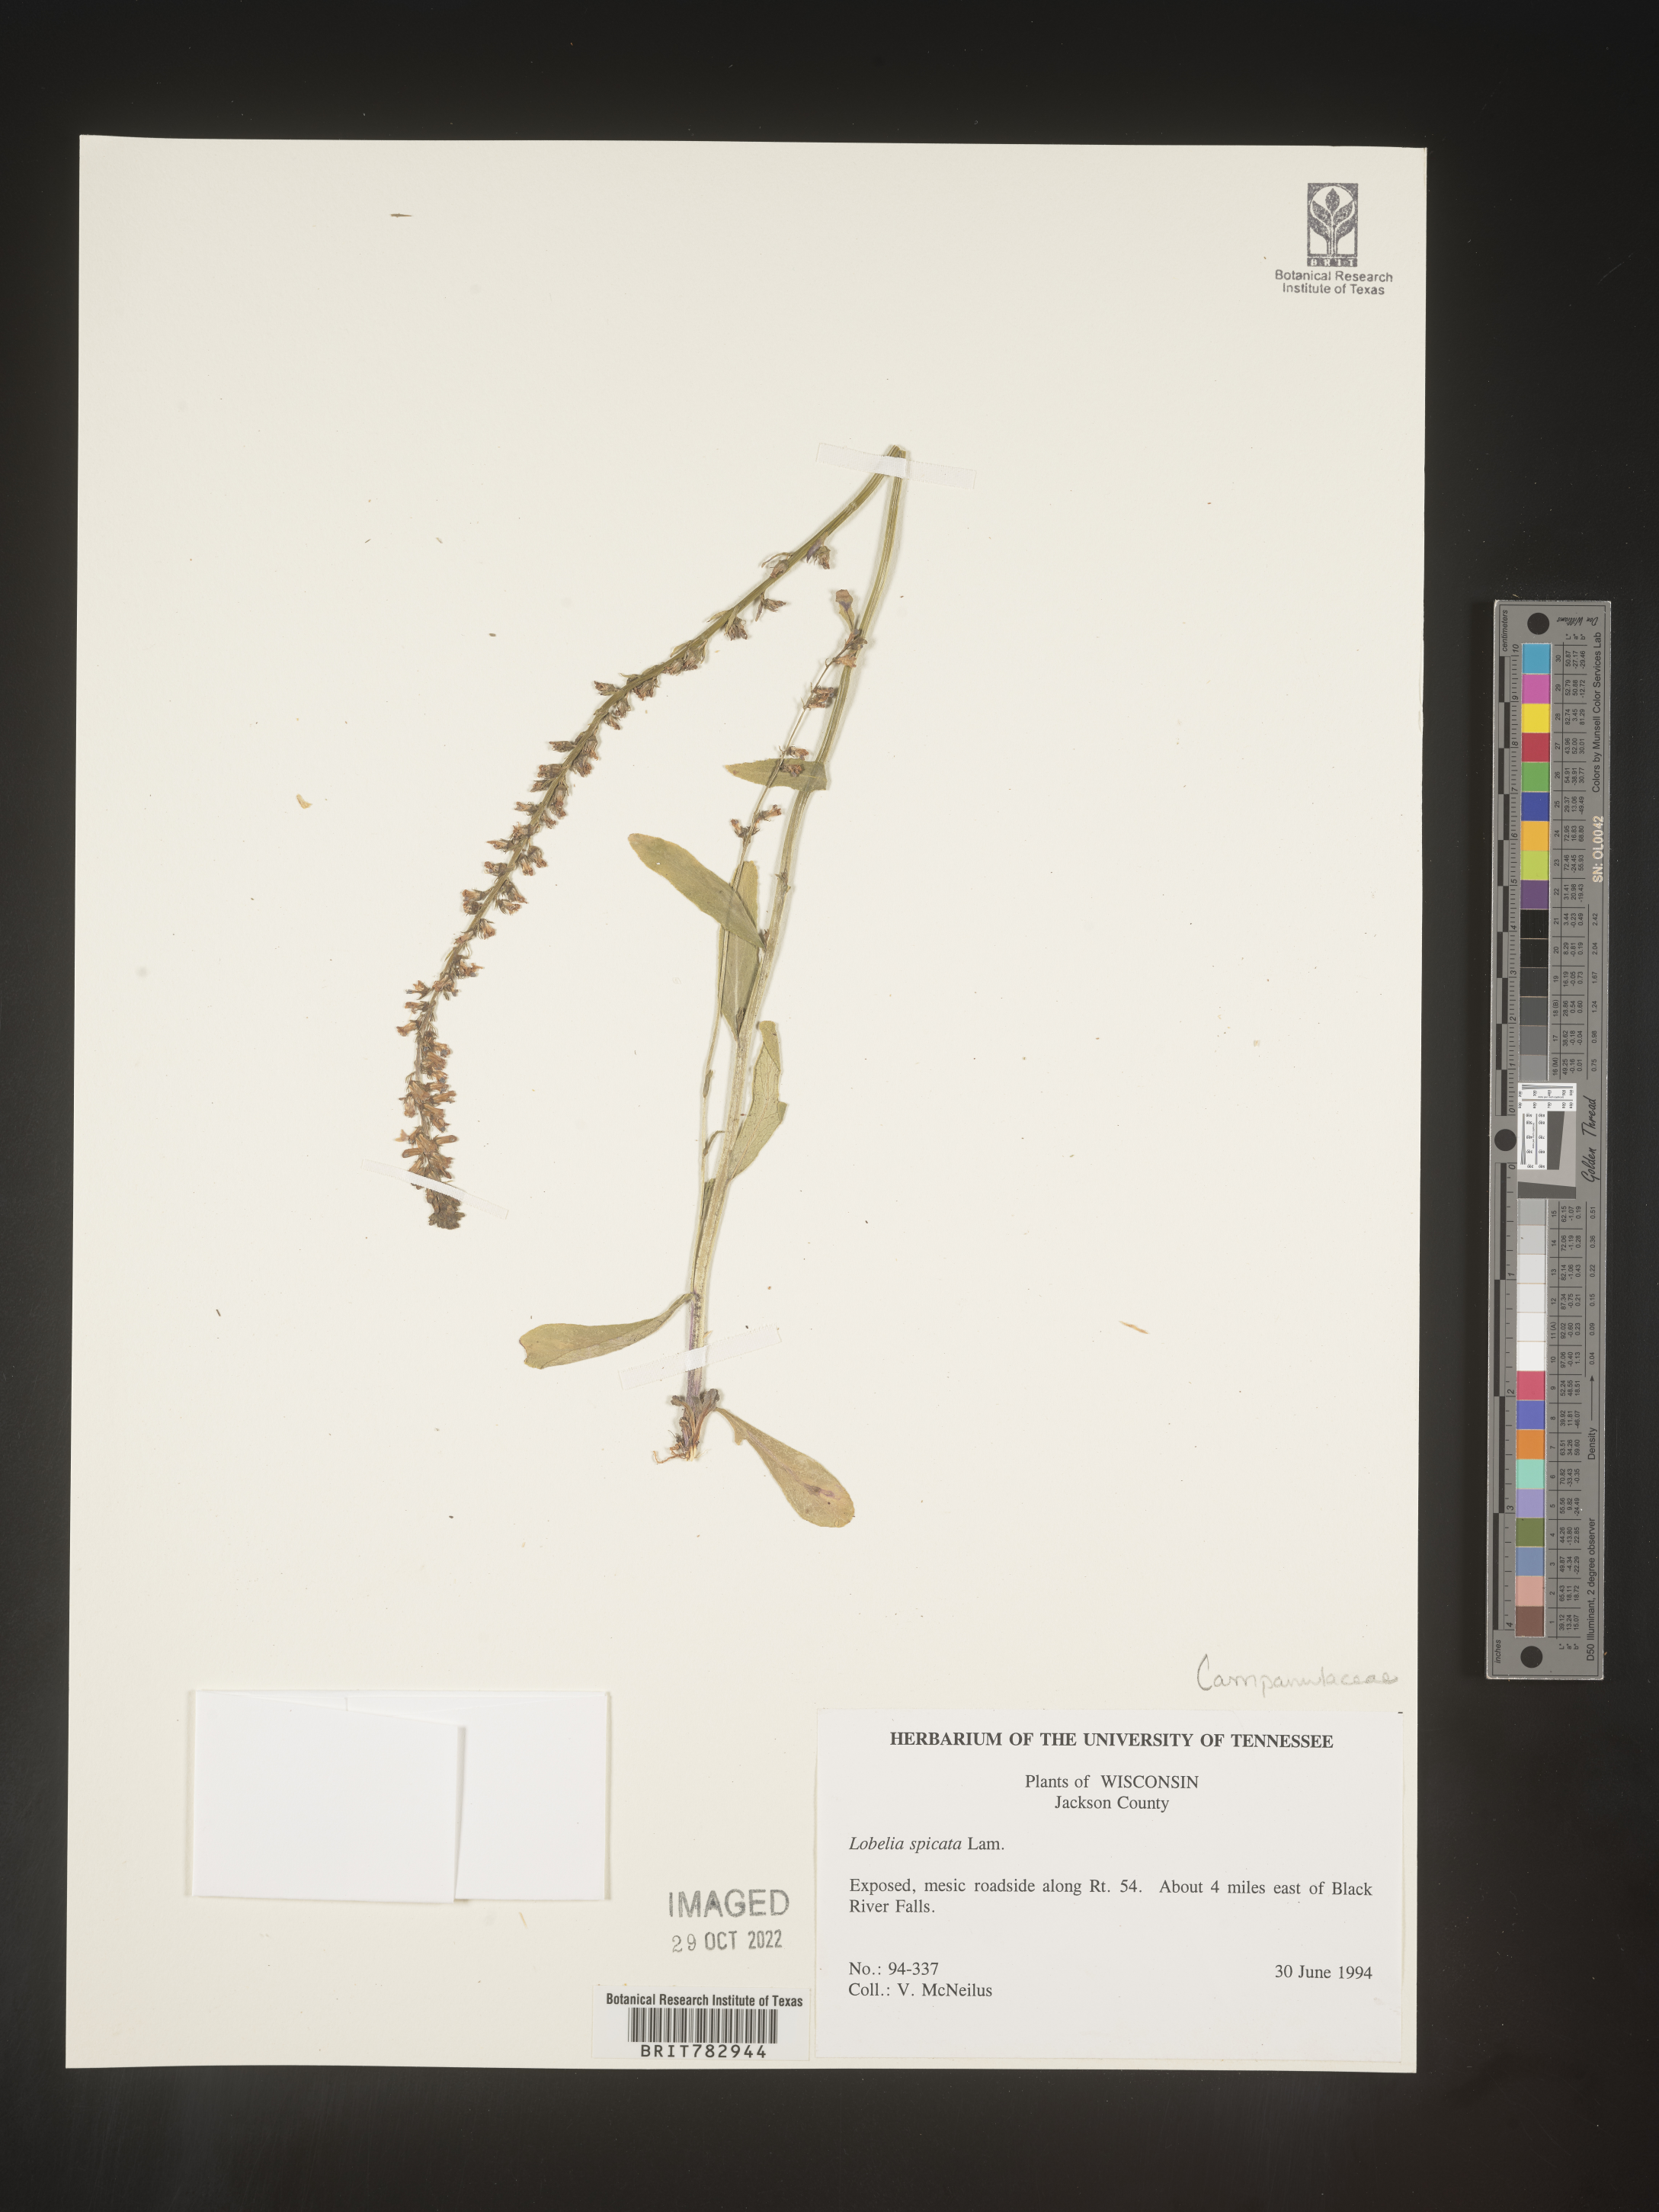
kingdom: Plantae
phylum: Tracheophyta
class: Magnoliopsida
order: Asterales
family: Campanulaceae
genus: Lobelia
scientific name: Lobelia spicata
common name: Pale-spike lobelia
